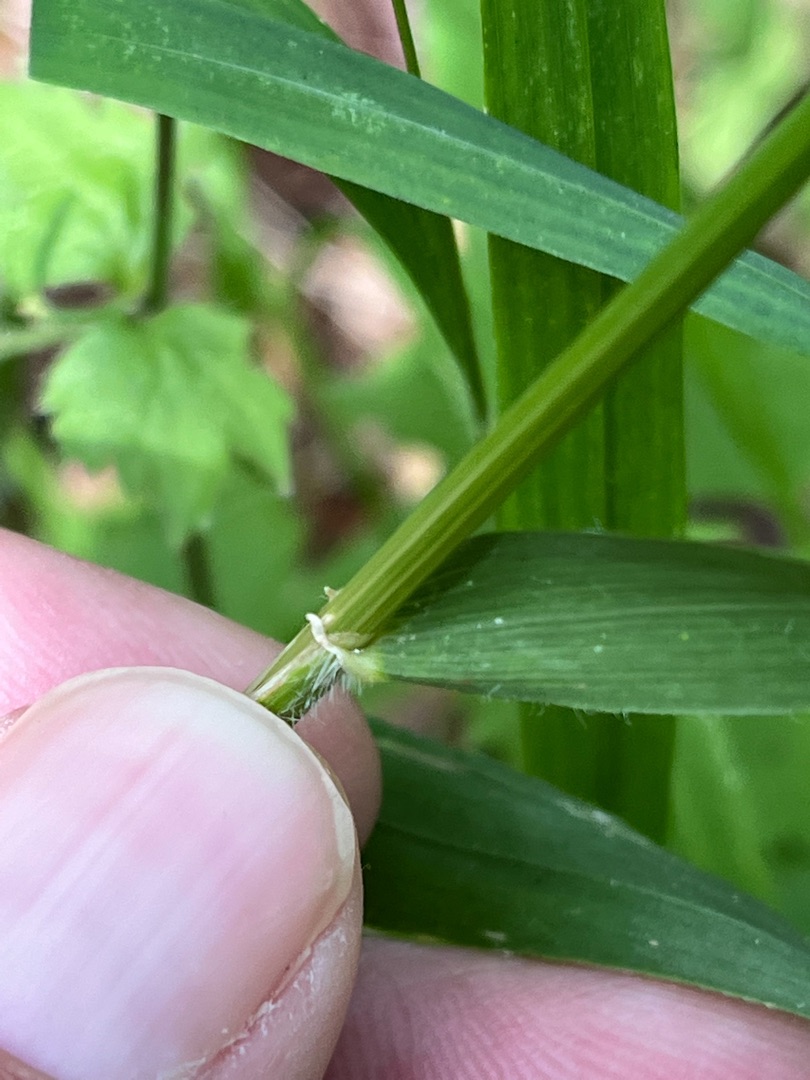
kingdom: Plantae
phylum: Tracheophyta
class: Liliopsida
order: Poales
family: Poaceae
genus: Hordelymus
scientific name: Hordelymus europaeus
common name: Skovbyg
